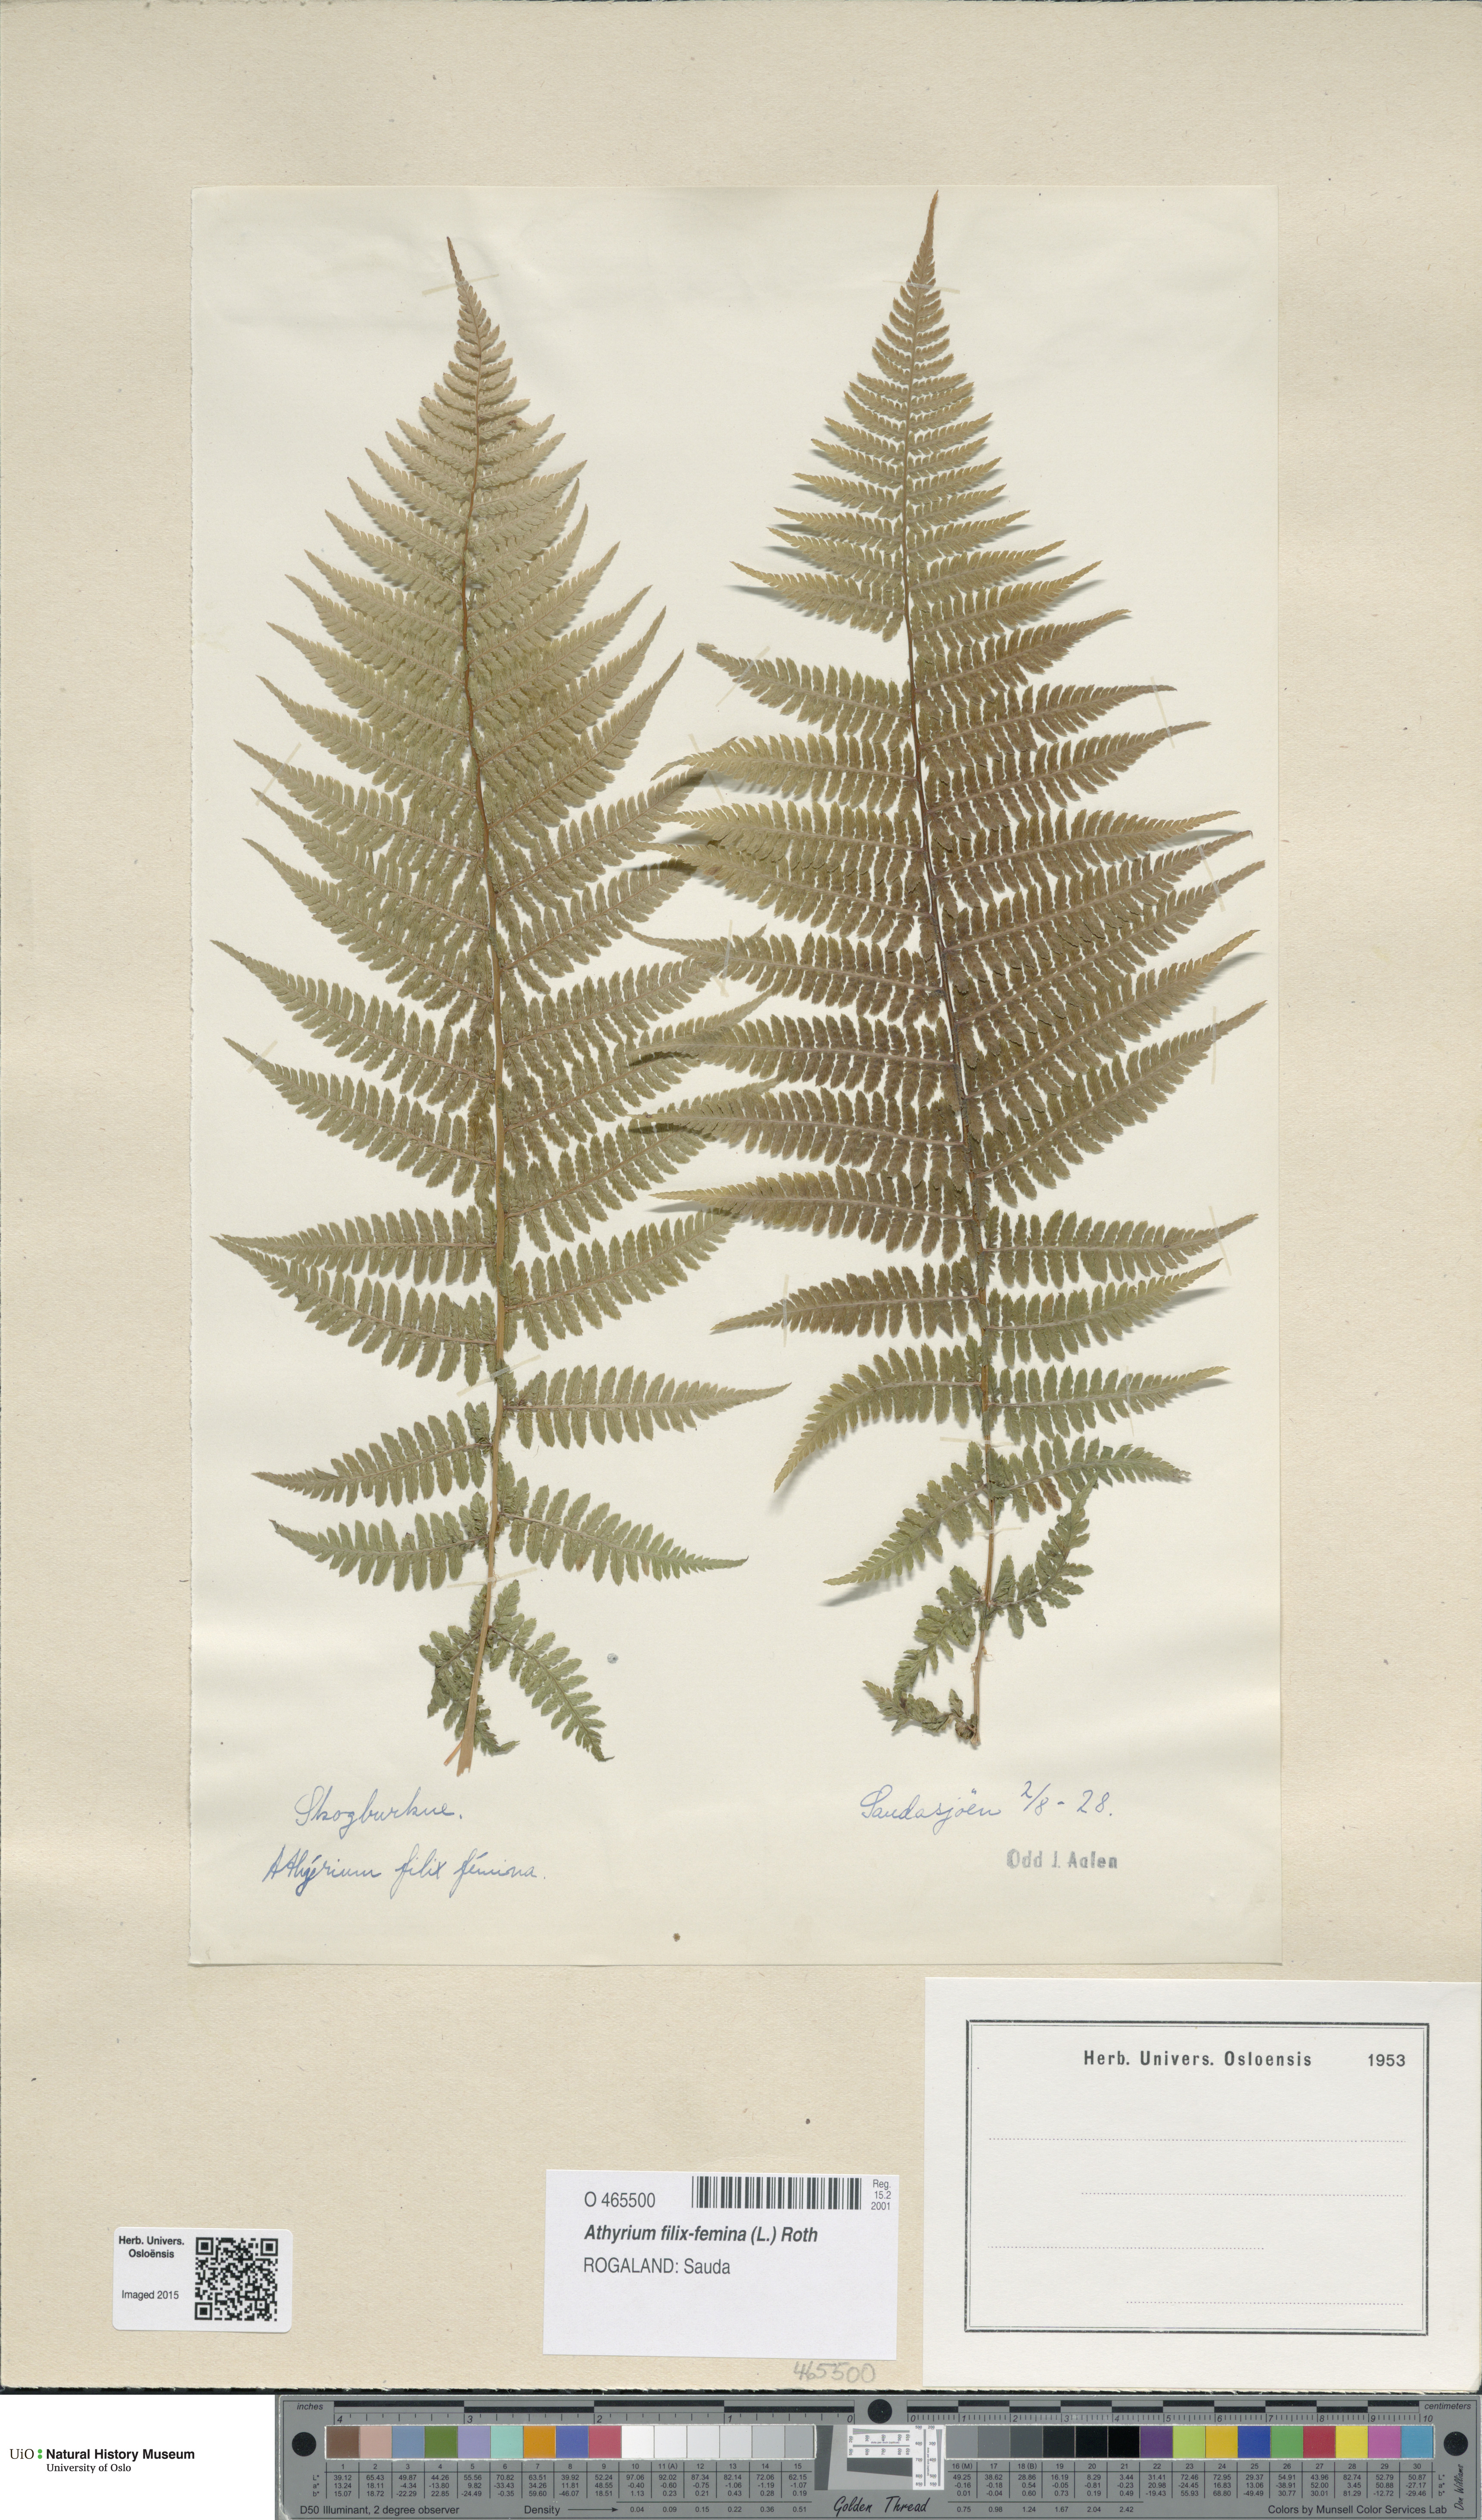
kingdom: Plantae
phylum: Tracheophyta
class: Polypodiopsida
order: Polypodiales
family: Athyriaceae
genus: Athyrium
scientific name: Athyrium filix-femina
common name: Lady fern
